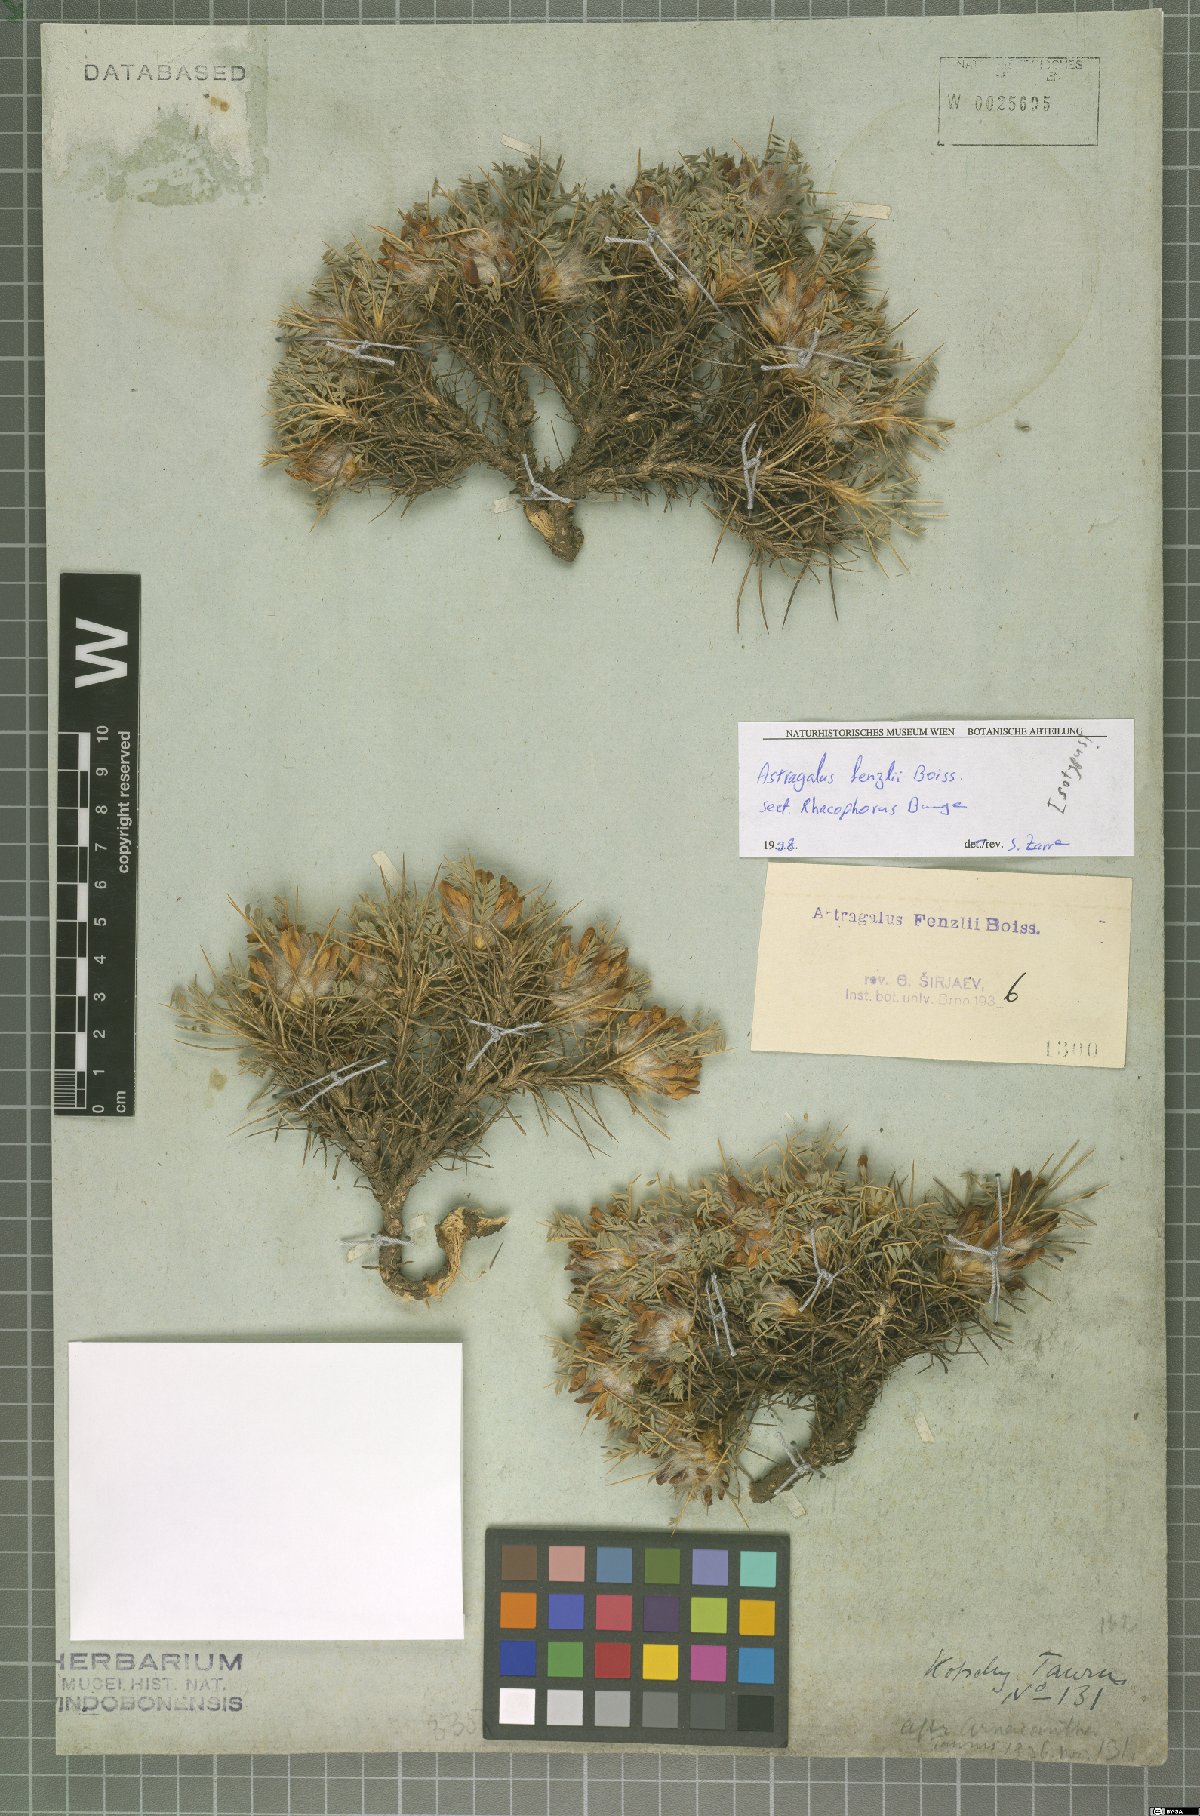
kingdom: Plantae
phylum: Tracheophyta
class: Magnoliopsida
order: Fabales
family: Fabaceae
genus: Astragalus
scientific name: Astragalus plumosus
